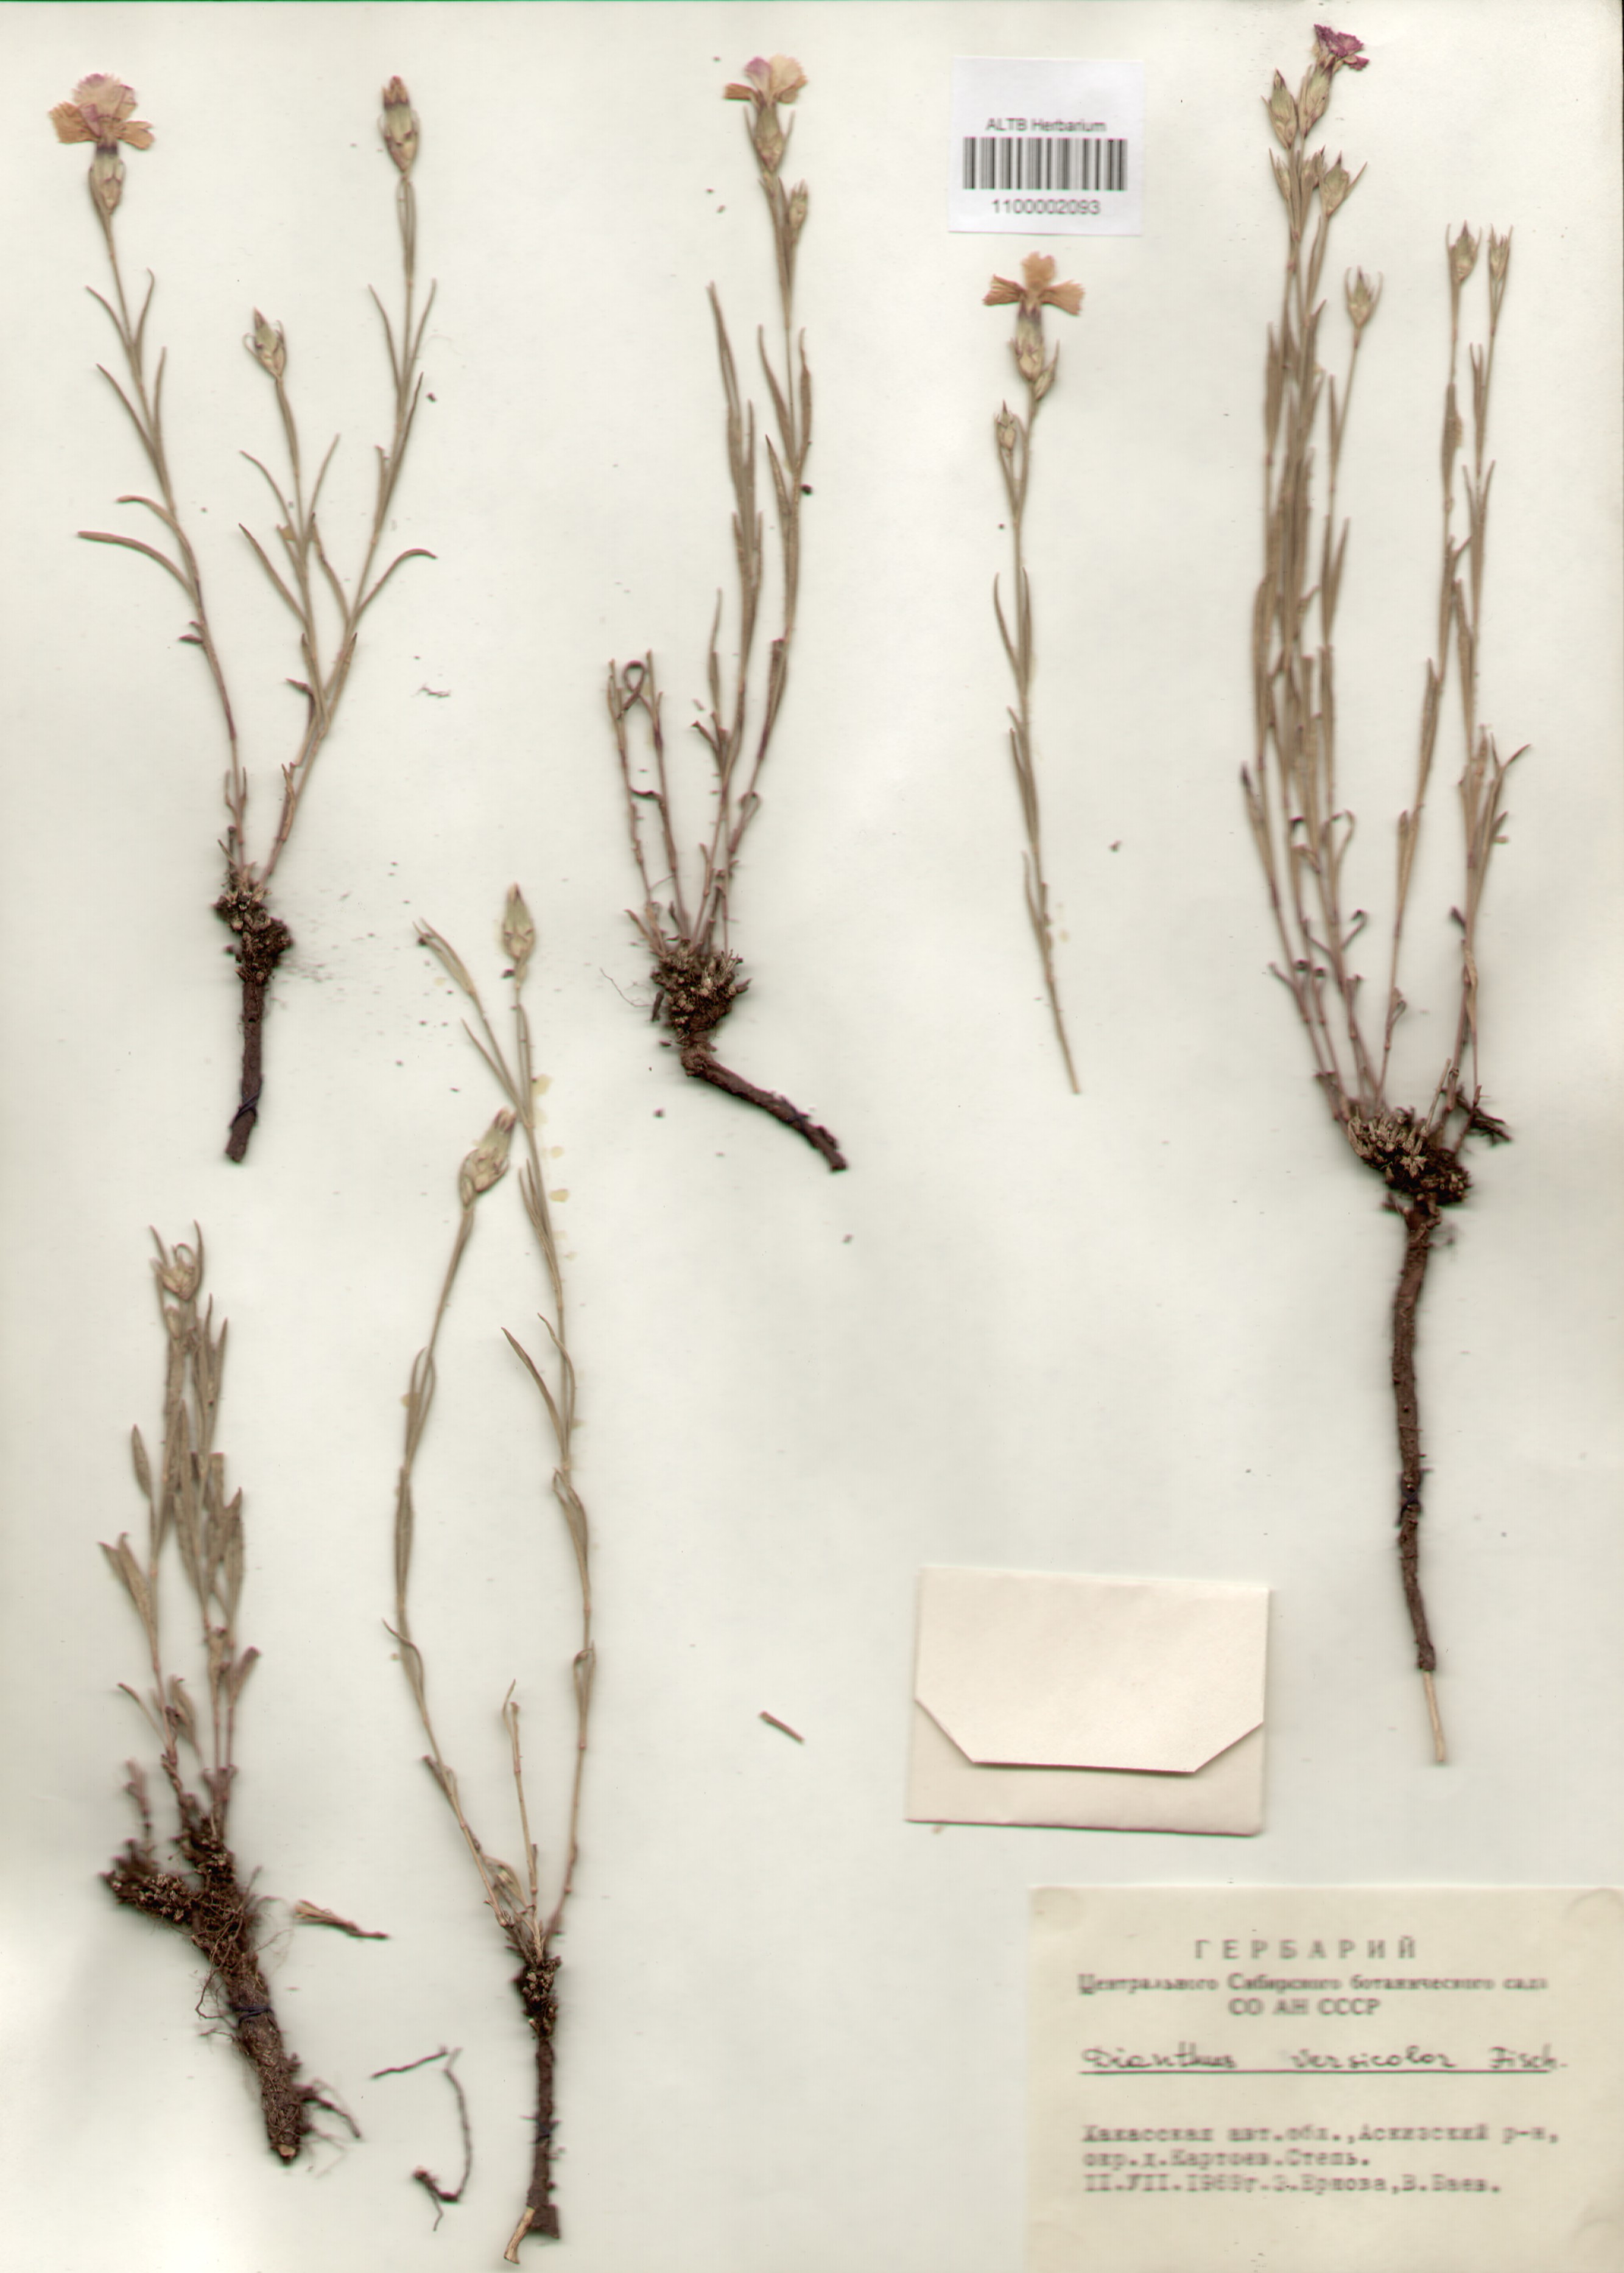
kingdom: Plantae
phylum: Tracheophyta
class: Magnoliopsida
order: Caryophyllales
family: Caryophyllaceae
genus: Dianthus
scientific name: Dianthus chinensis
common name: Rainbow pink
